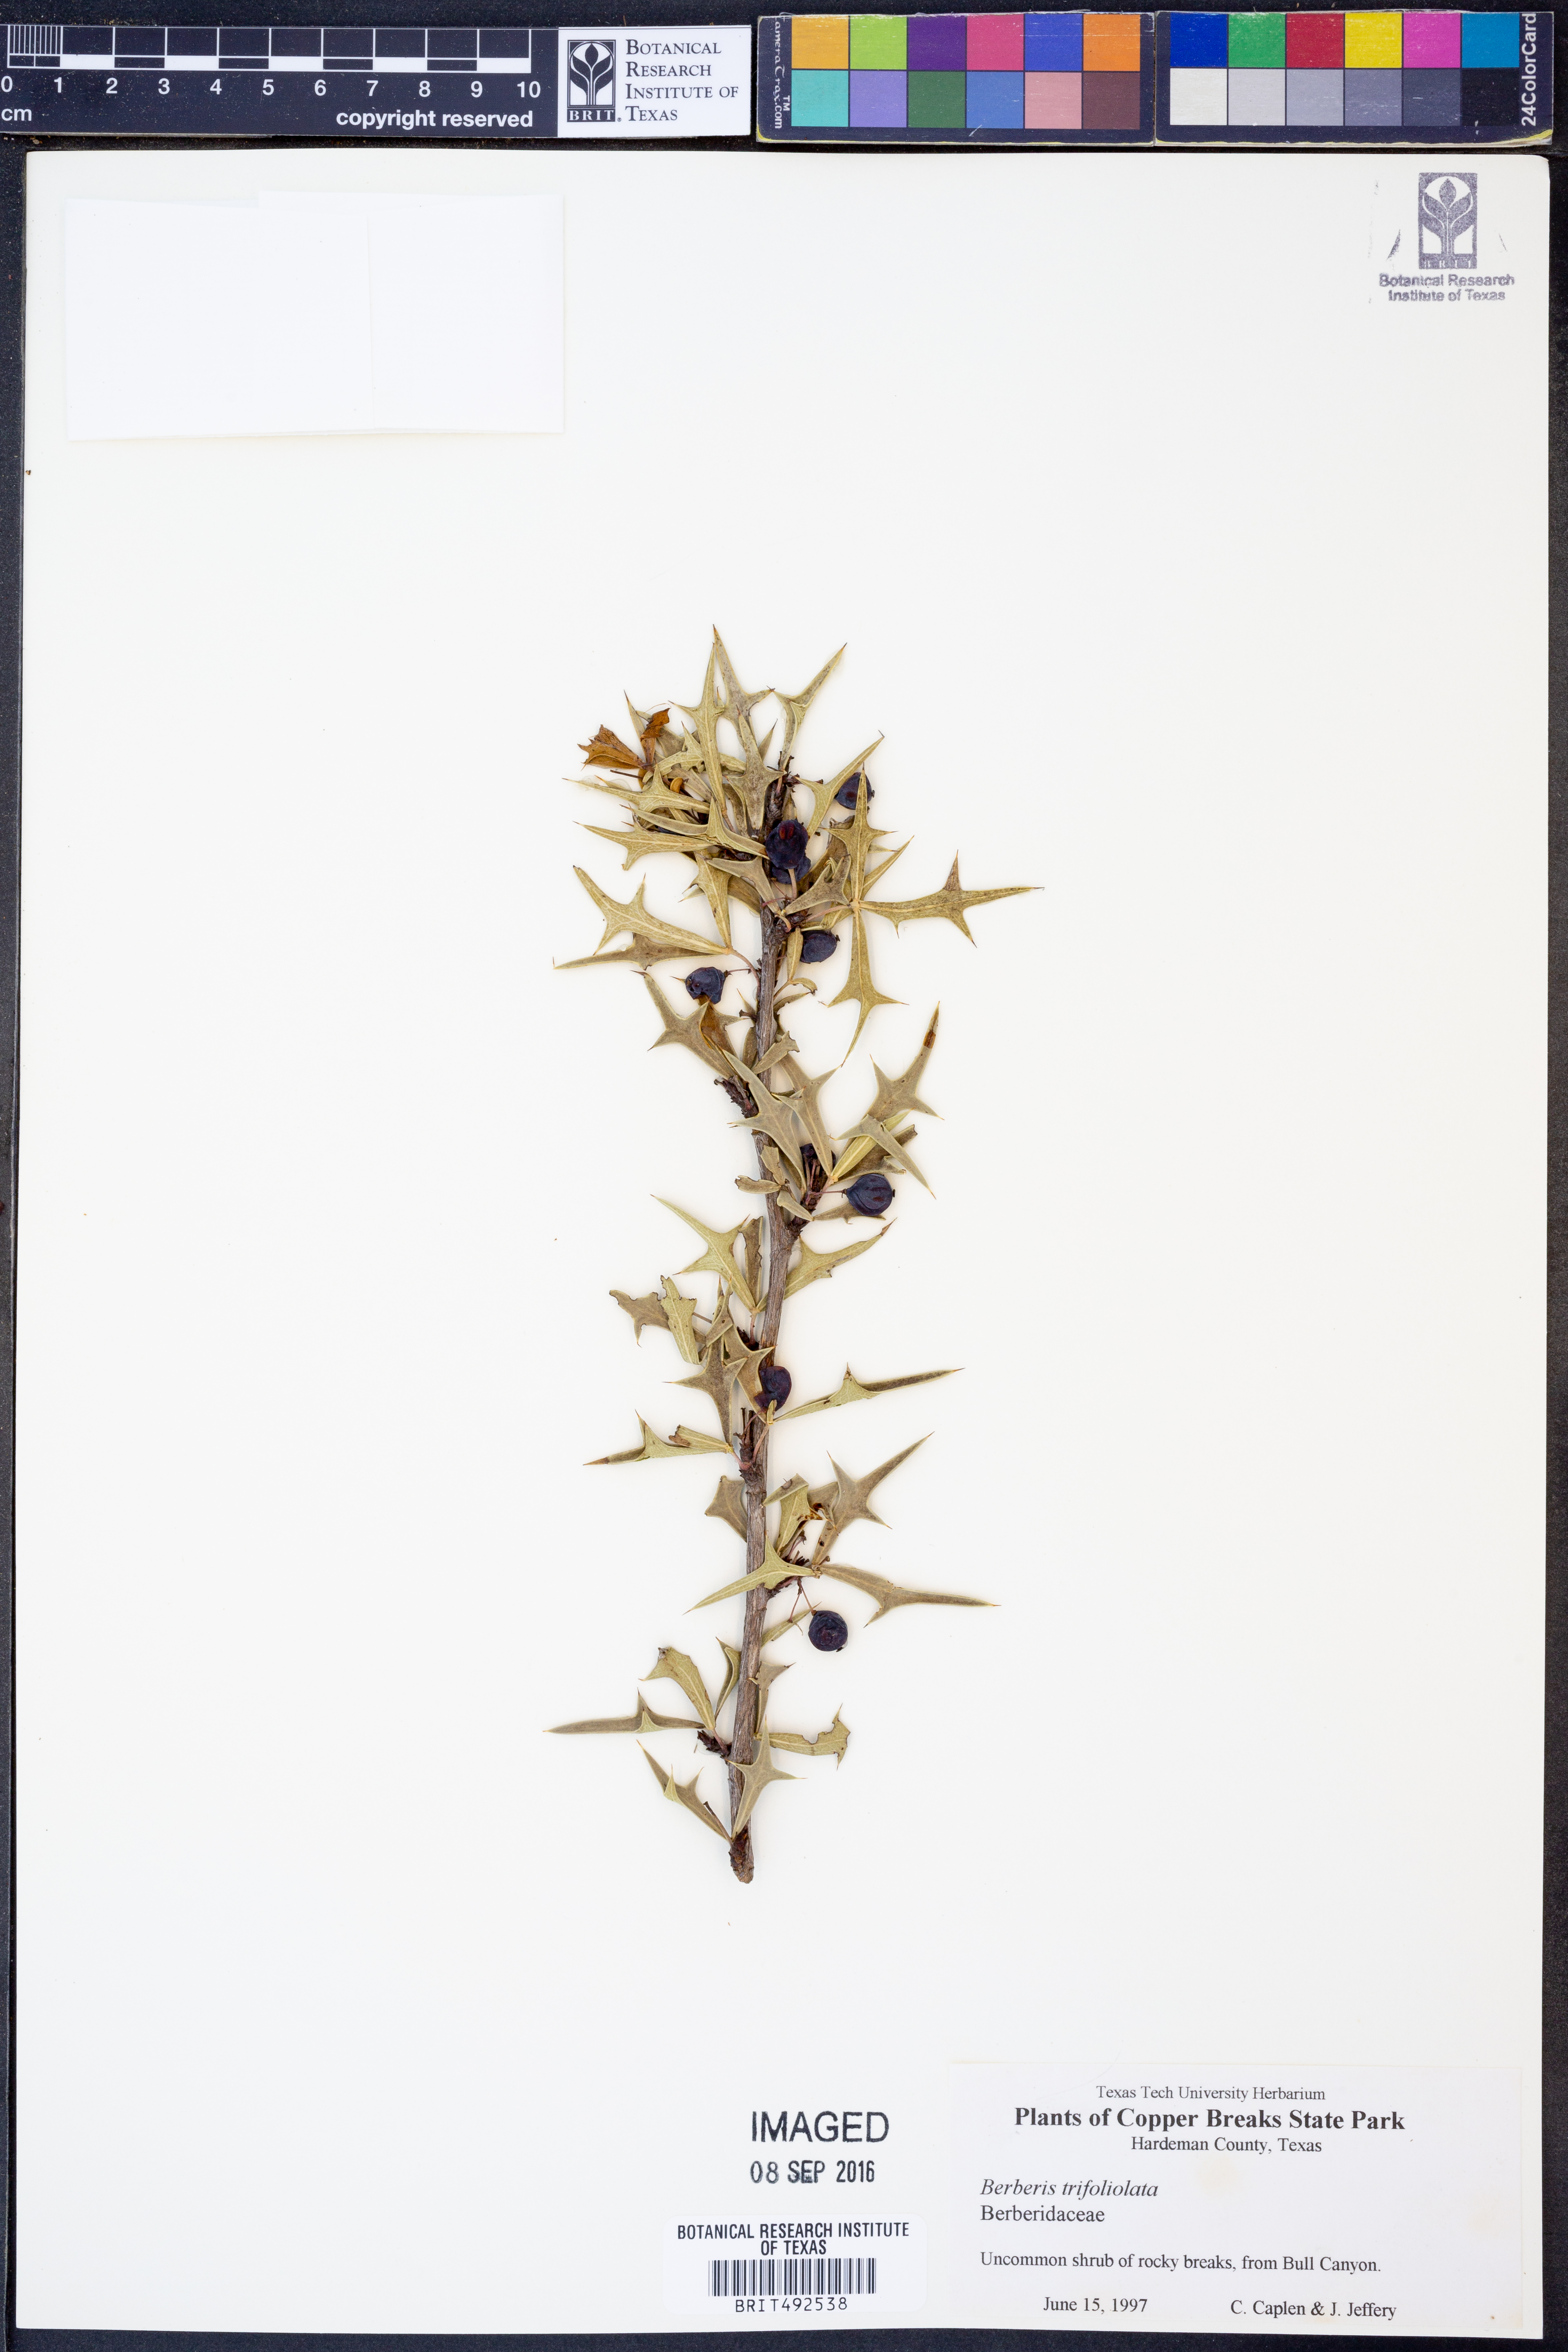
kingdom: Plantae
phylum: Tracheophyta
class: Magnoliopsida
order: Ranunculales
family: Berberidaceae
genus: Alloberberis
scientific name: Alloberberis trifoliolata
